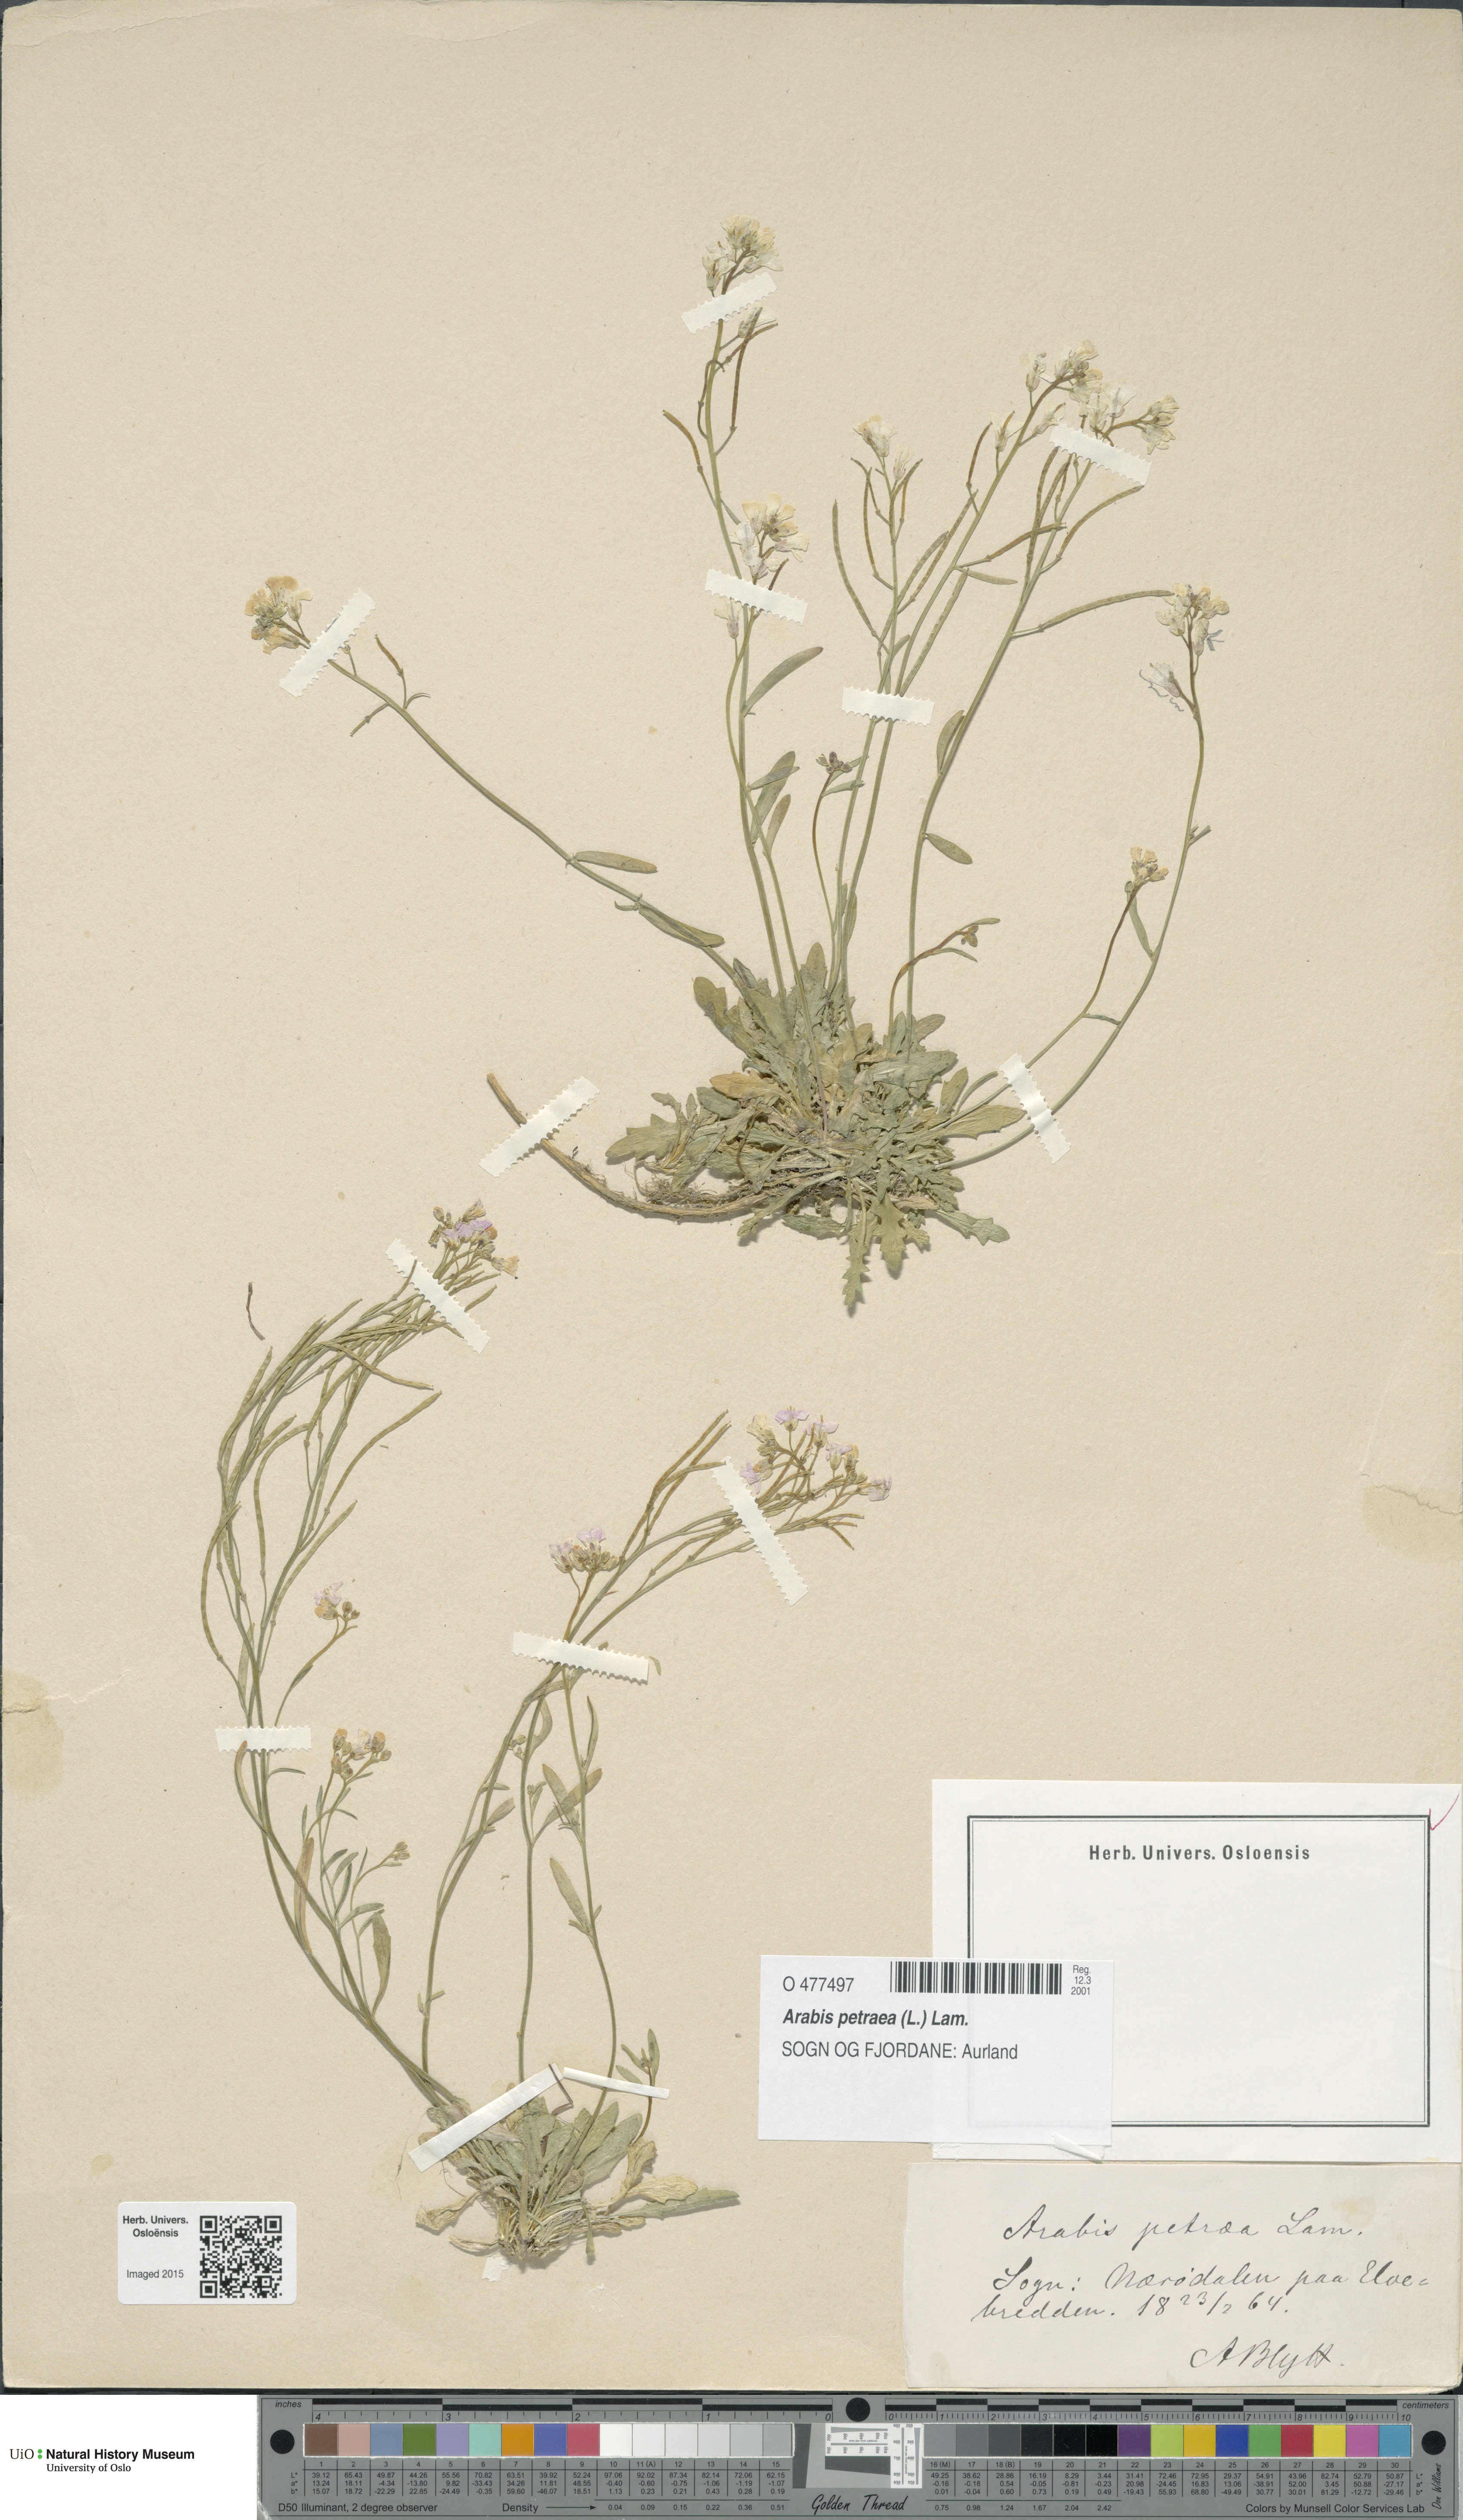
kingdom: Plantae
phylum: Tracheophyta
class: Magnoliopsida
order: Brassicales
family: Brassicaceae
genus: Arabidopsis
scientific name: Arabidopsis petraea
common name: Northern rock-cress
